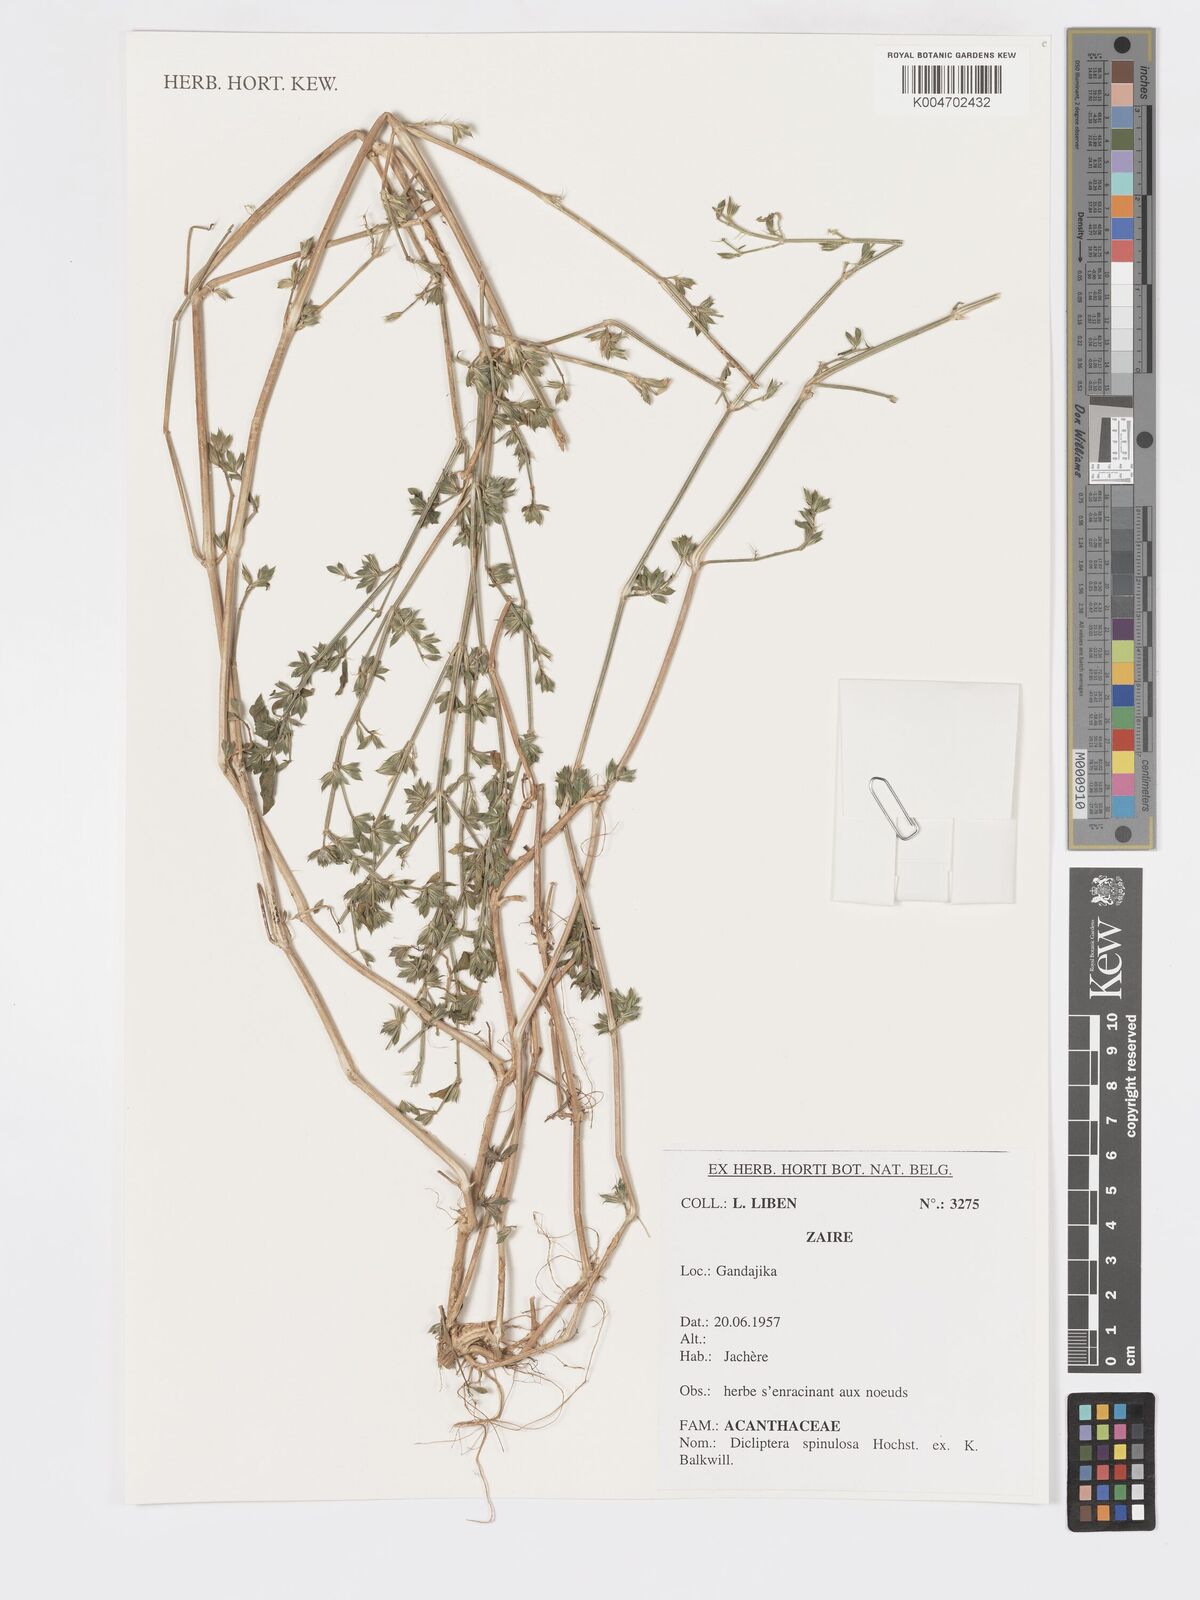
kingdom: Plantae
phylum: Tracheophyta
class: Magnoliopsida
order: Lamiales
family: Acanthaceae
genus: Dicliptera
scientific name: Dicliptera verticillata
